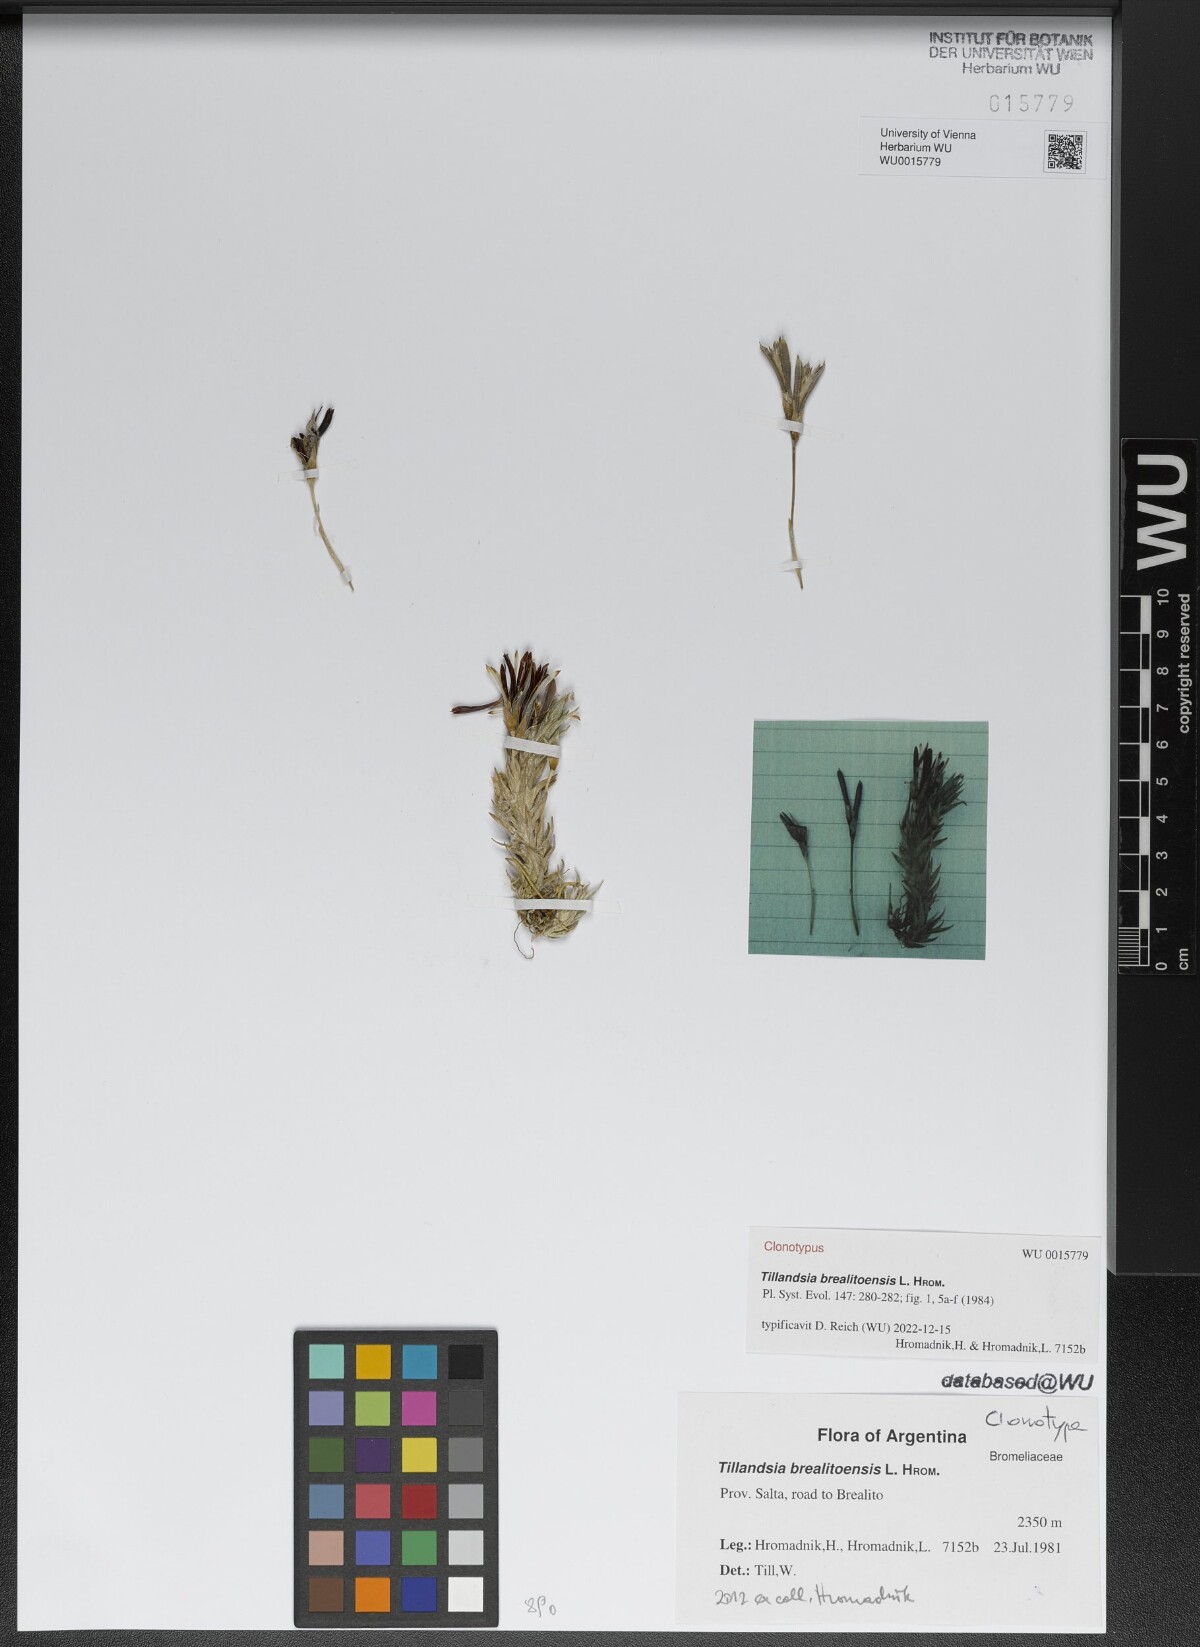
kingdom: Plantae
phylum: Tracheophyta
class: Liliopsida
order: Poales
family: Bromeliaceae
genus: Tillandsia
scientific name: Tillandsia brealitoensis
